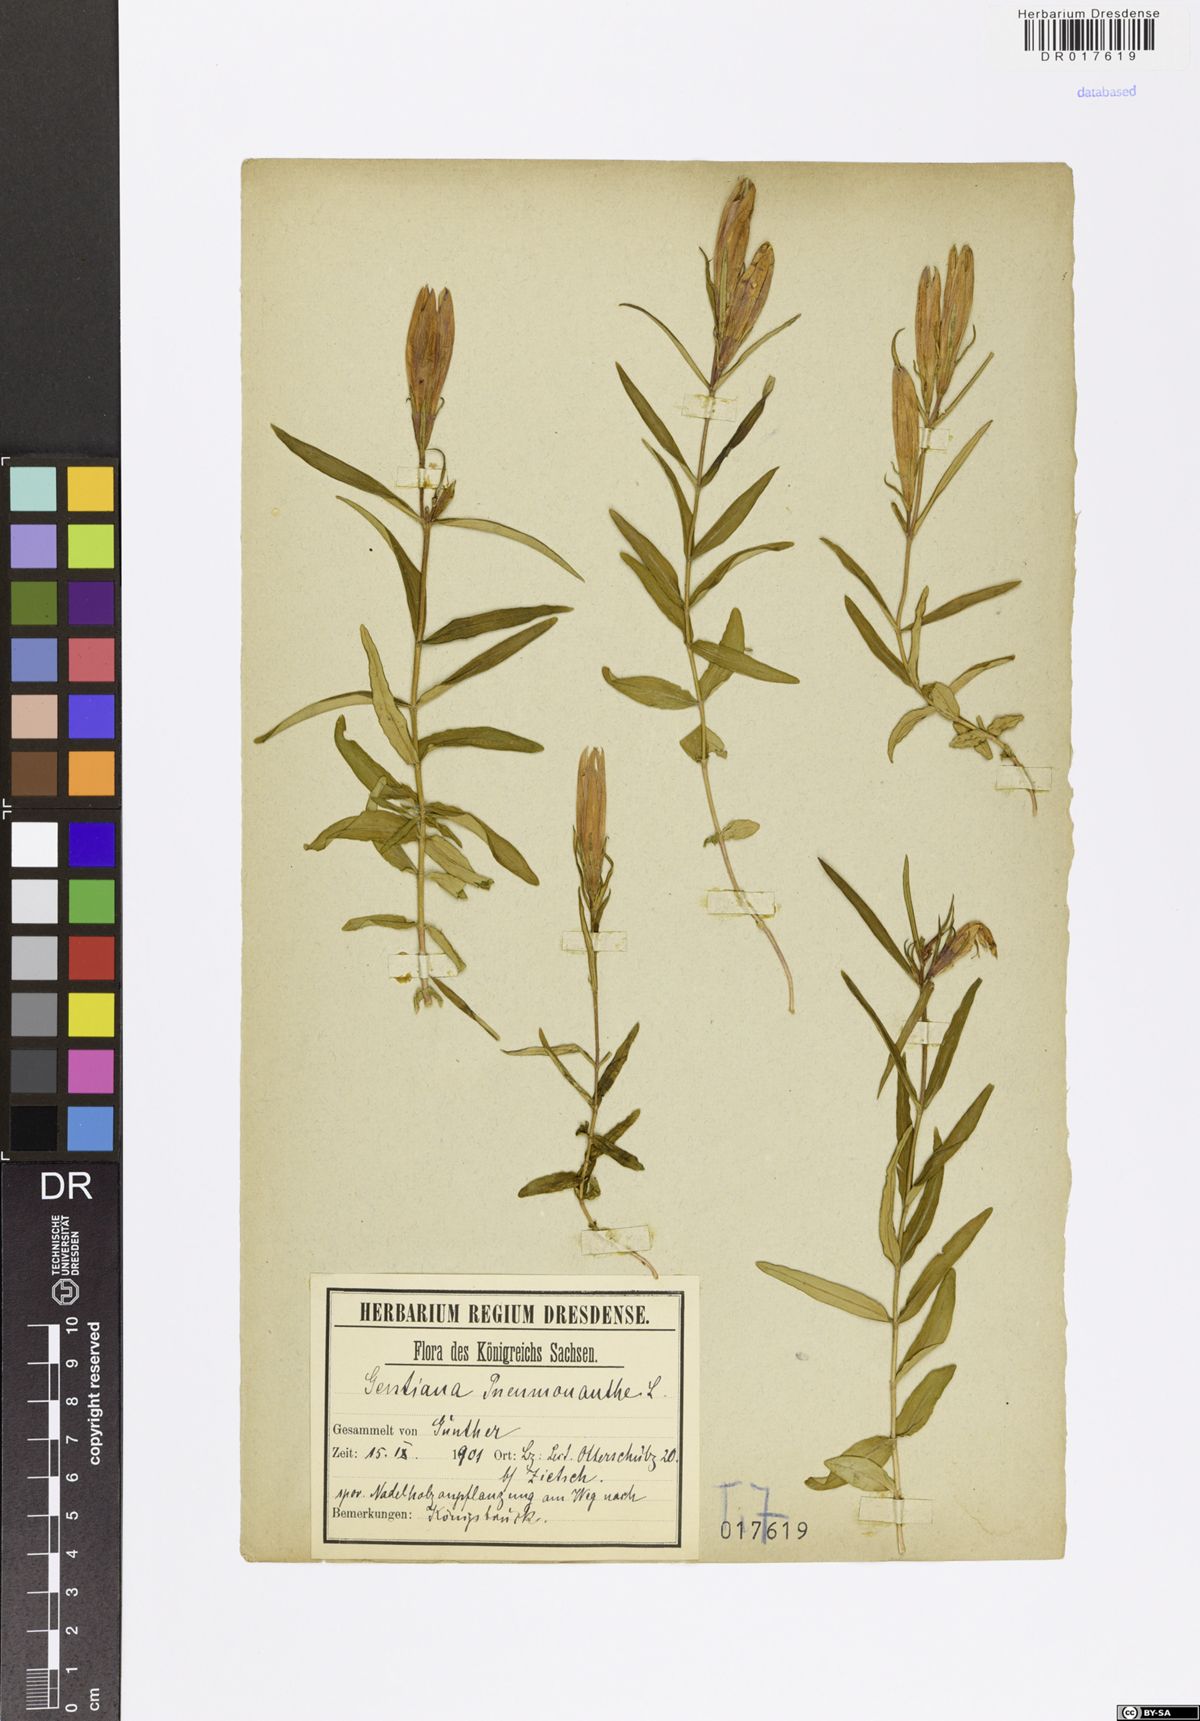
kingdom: Plantae
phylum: Tracheophyta
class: Magnoliopsida
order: Gentianales
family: Gentianaceae
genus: Gentiana
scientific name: Gentiana pneumonanthe
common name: Marsh gentian
